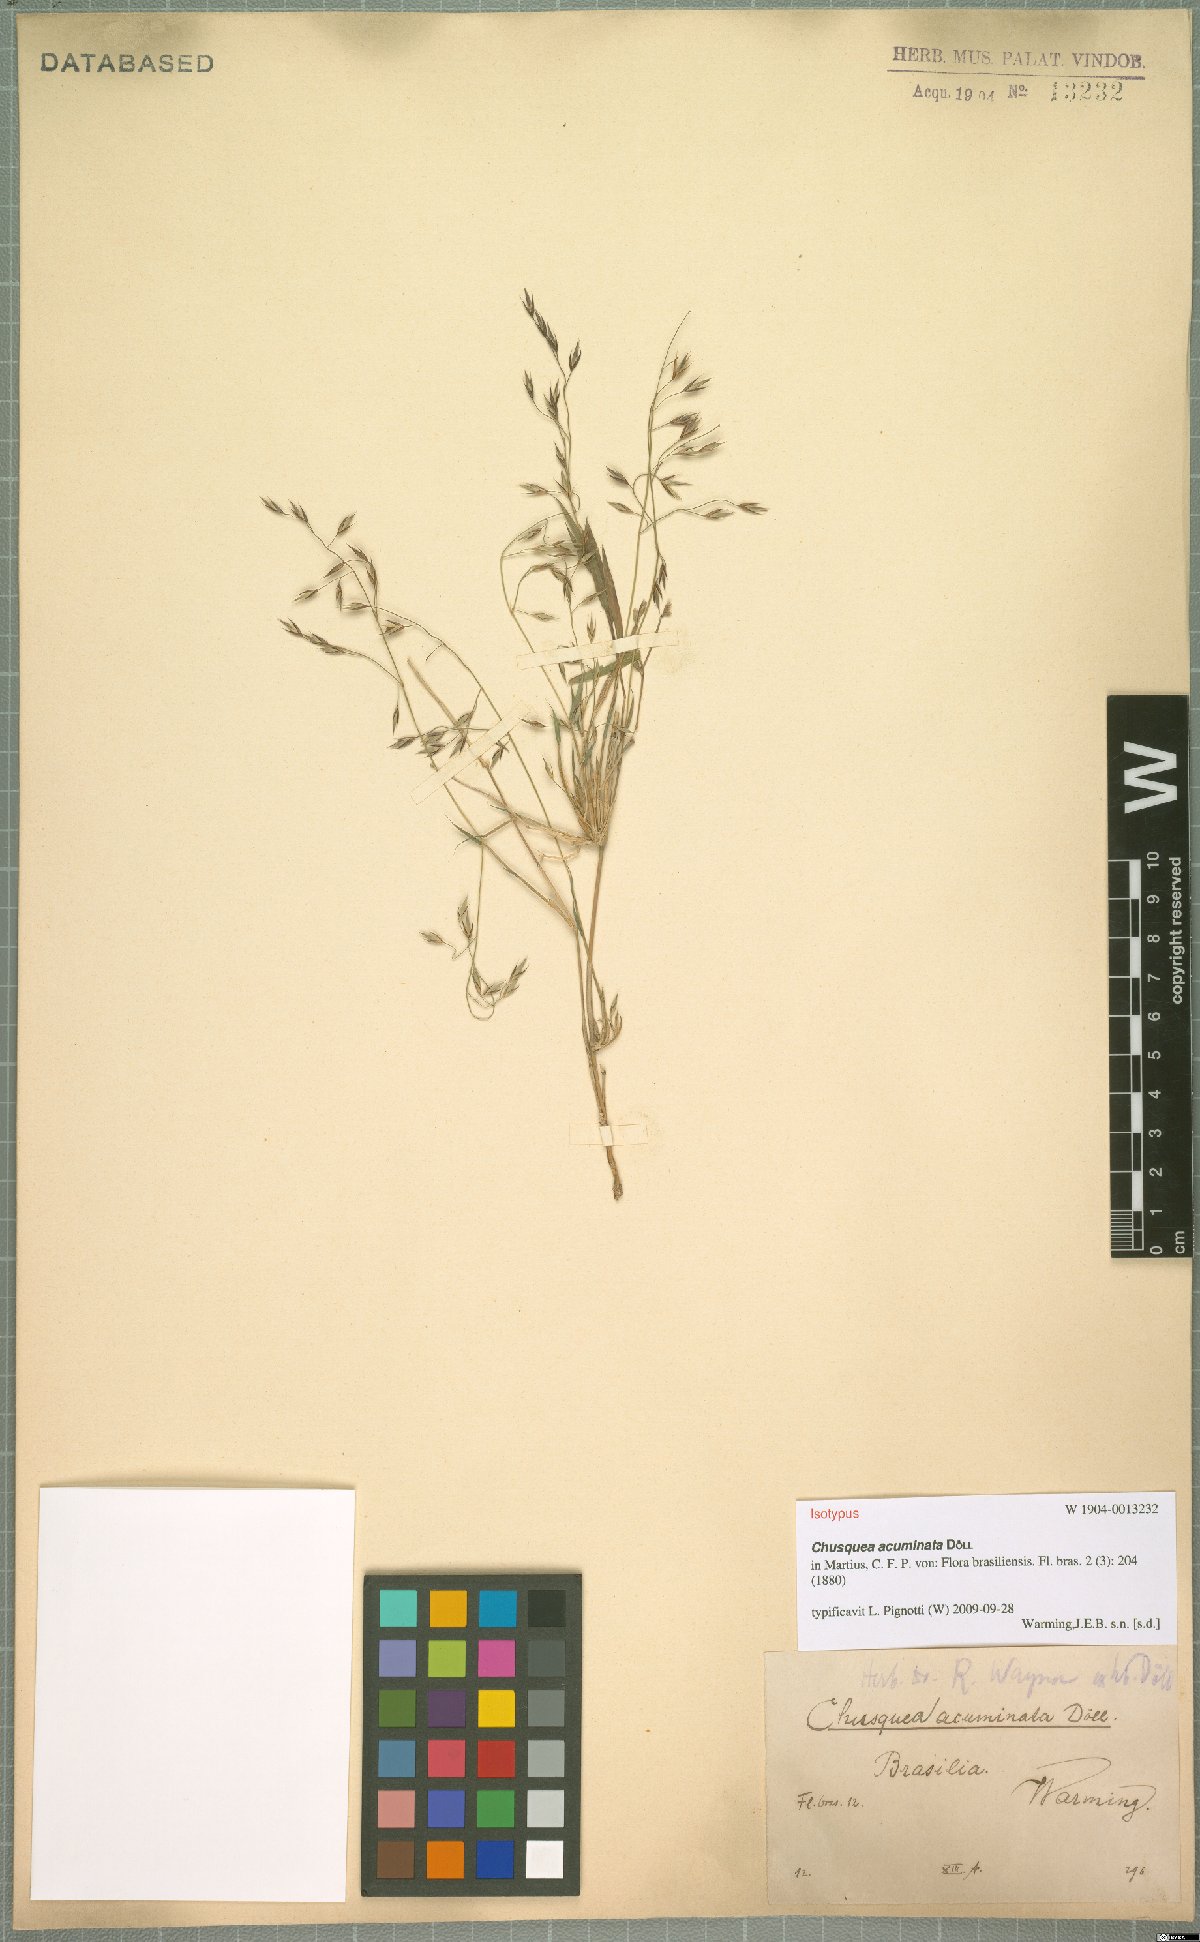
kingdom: Plantae
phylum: Tracheophyta
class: Liliopsida
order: Poales
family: Poaceae
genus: Chusquea
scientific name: Chusquea acuminata
